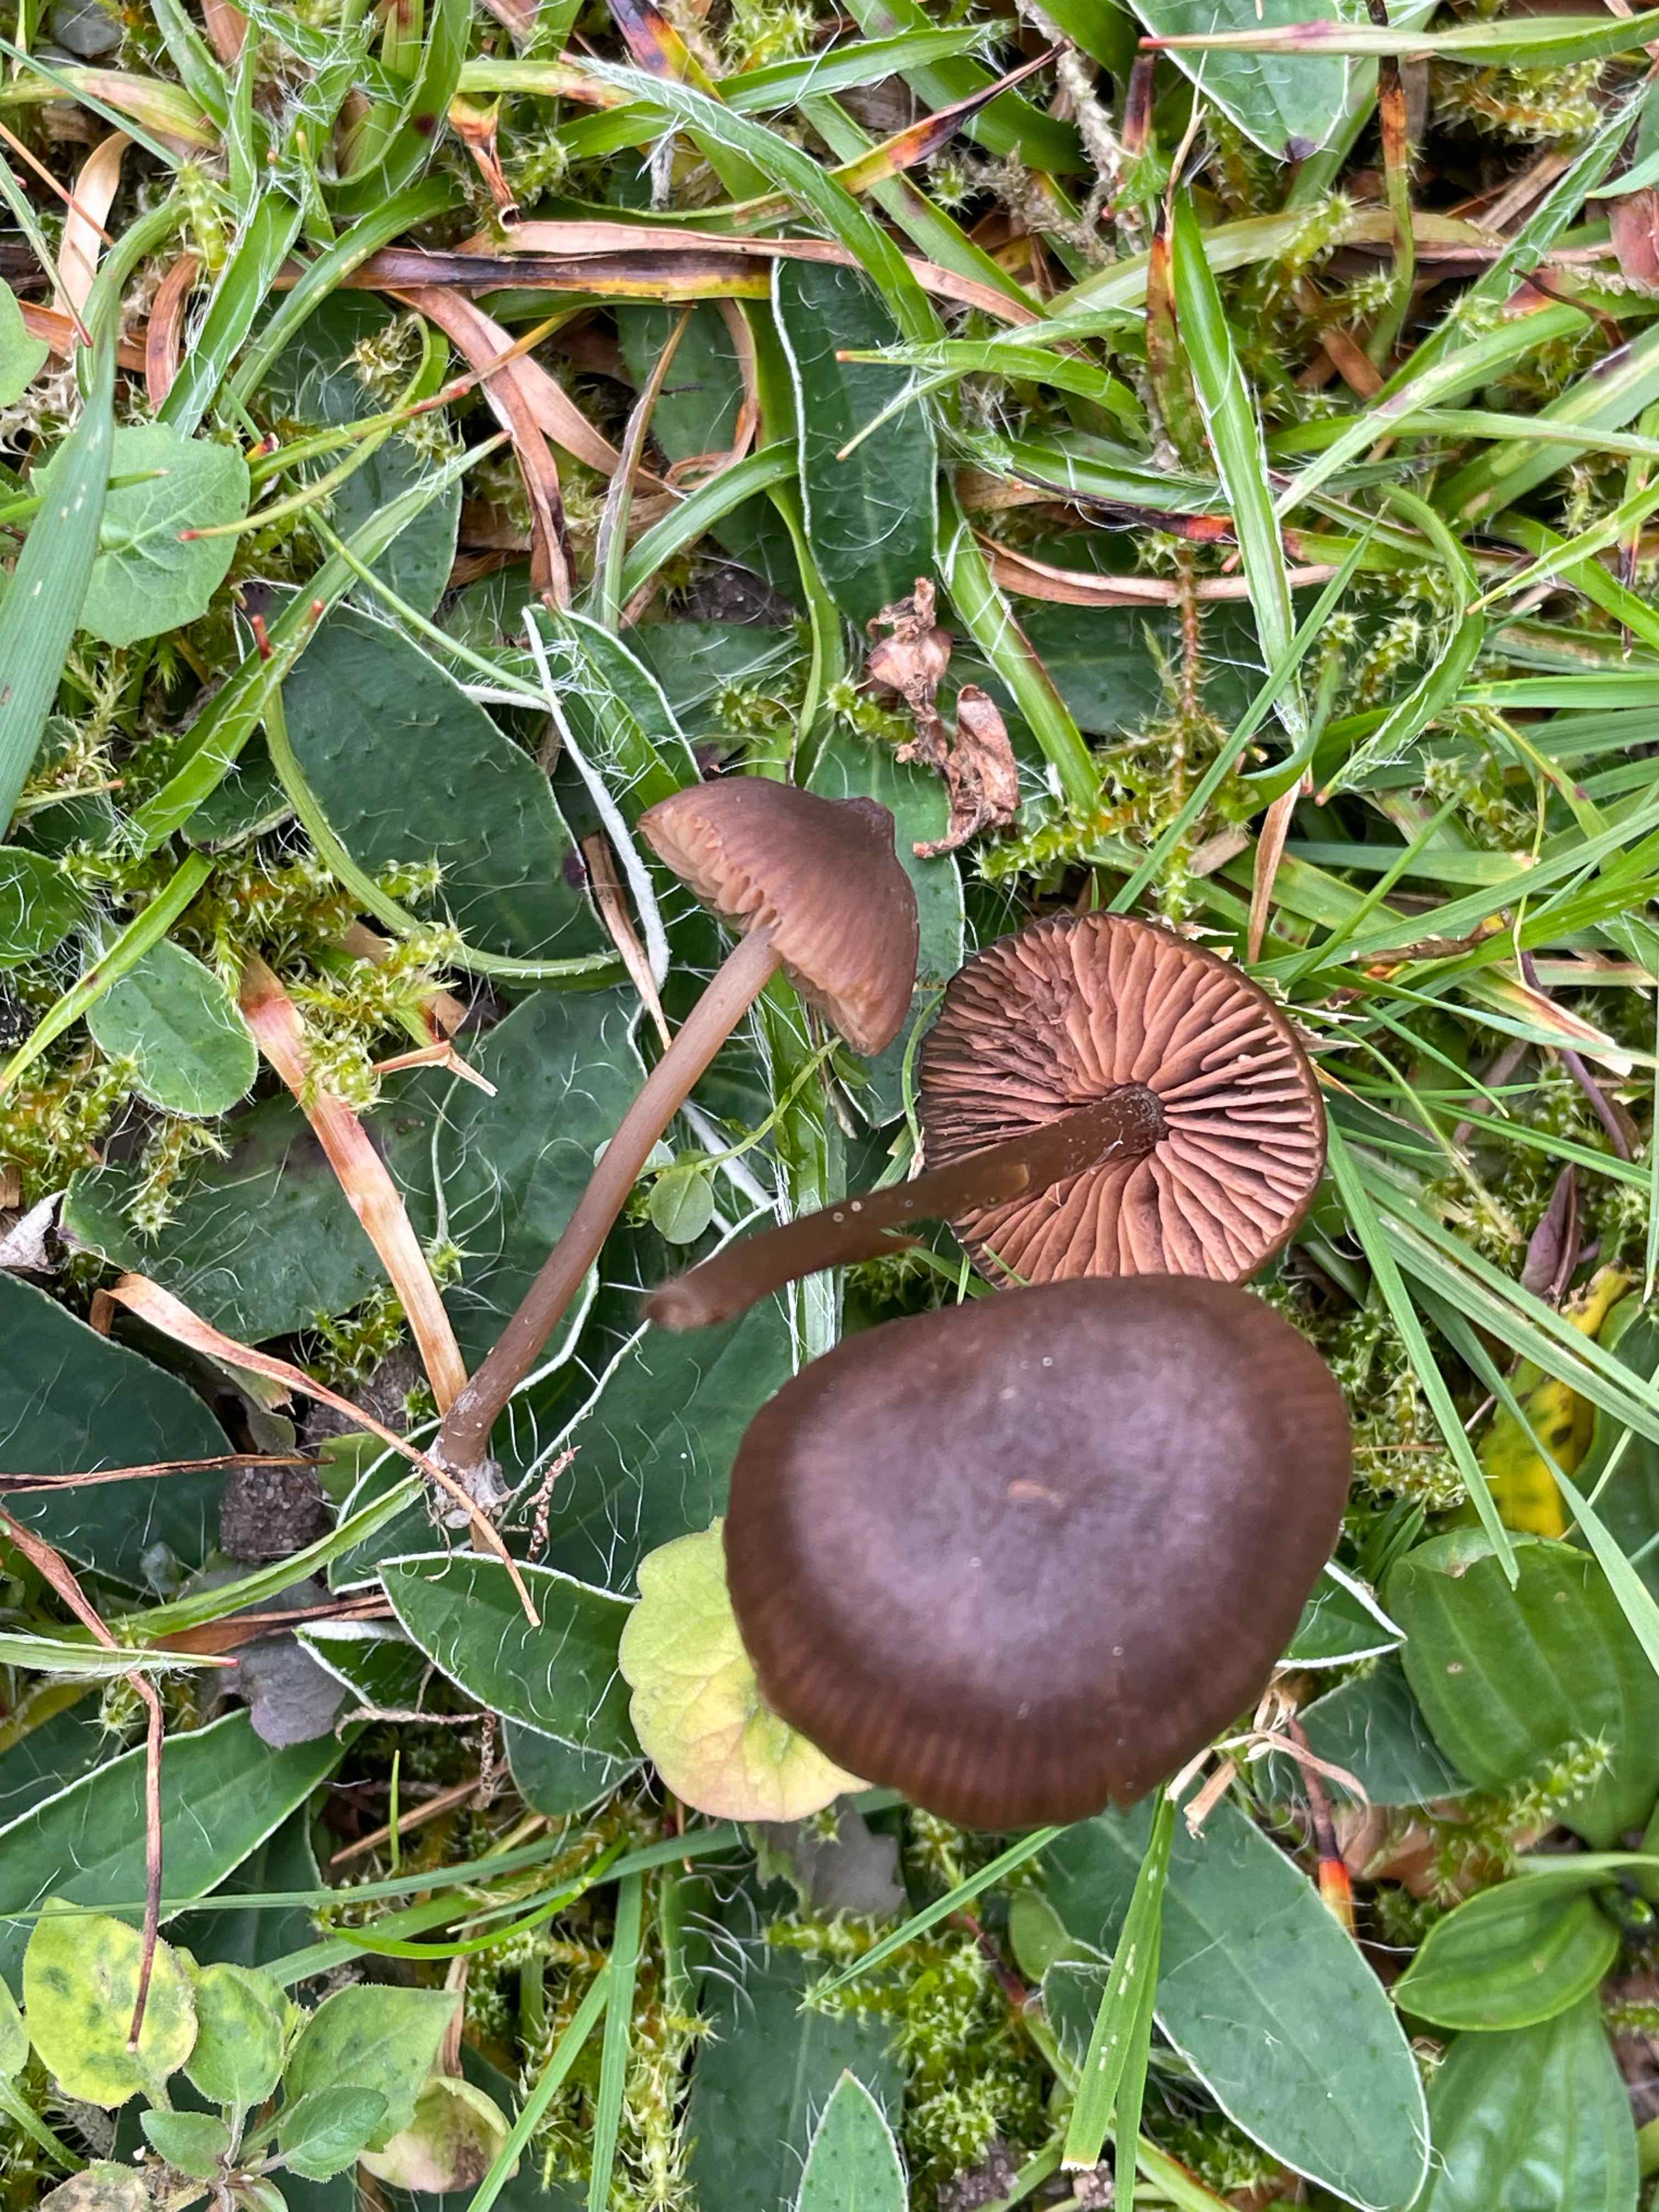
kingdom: Fungi
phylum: Basidiomycota
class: Agaricomycetes
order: Agaricales
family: Entolomataceae
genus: Entoloma
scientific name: Entoloma clandestinum
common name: tykbladet rødblad
